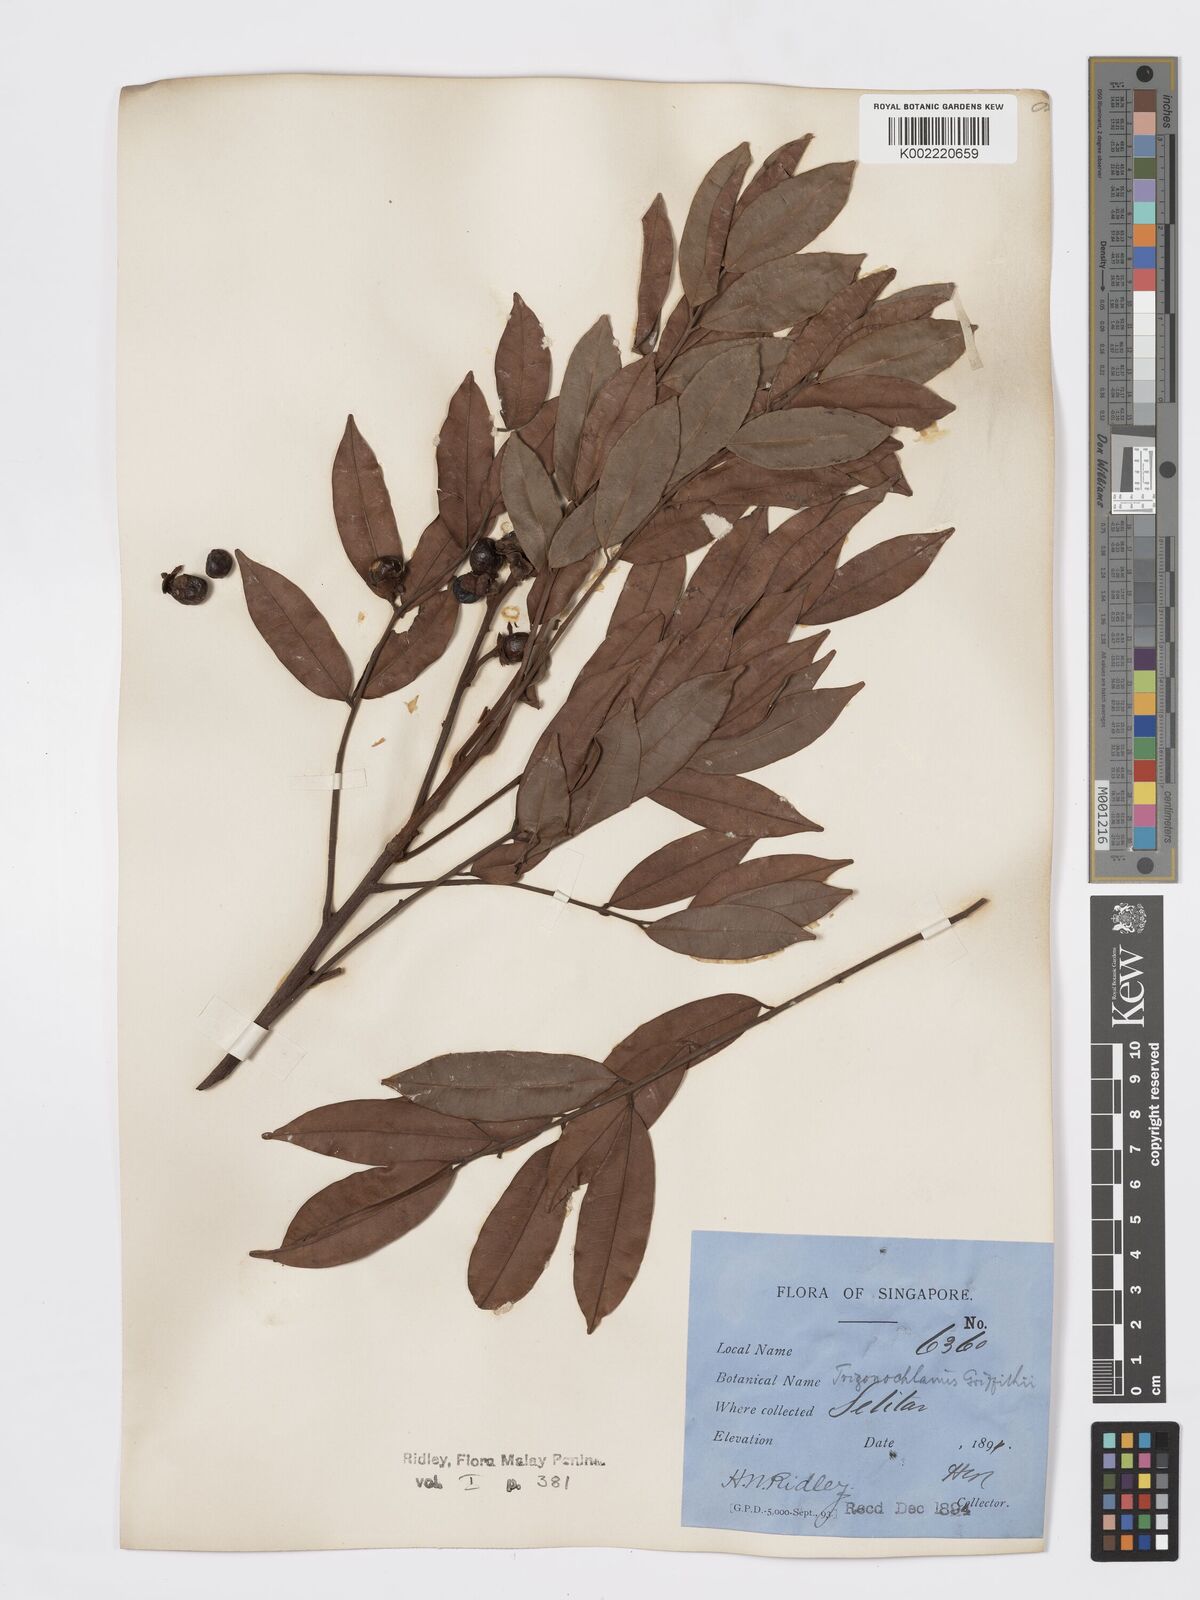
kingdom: Plantae
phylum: Tracheophyta
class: Magnoliopsida
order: Sapindales
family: Burseraceae
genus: Santiria
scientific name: Santiria griffithii
